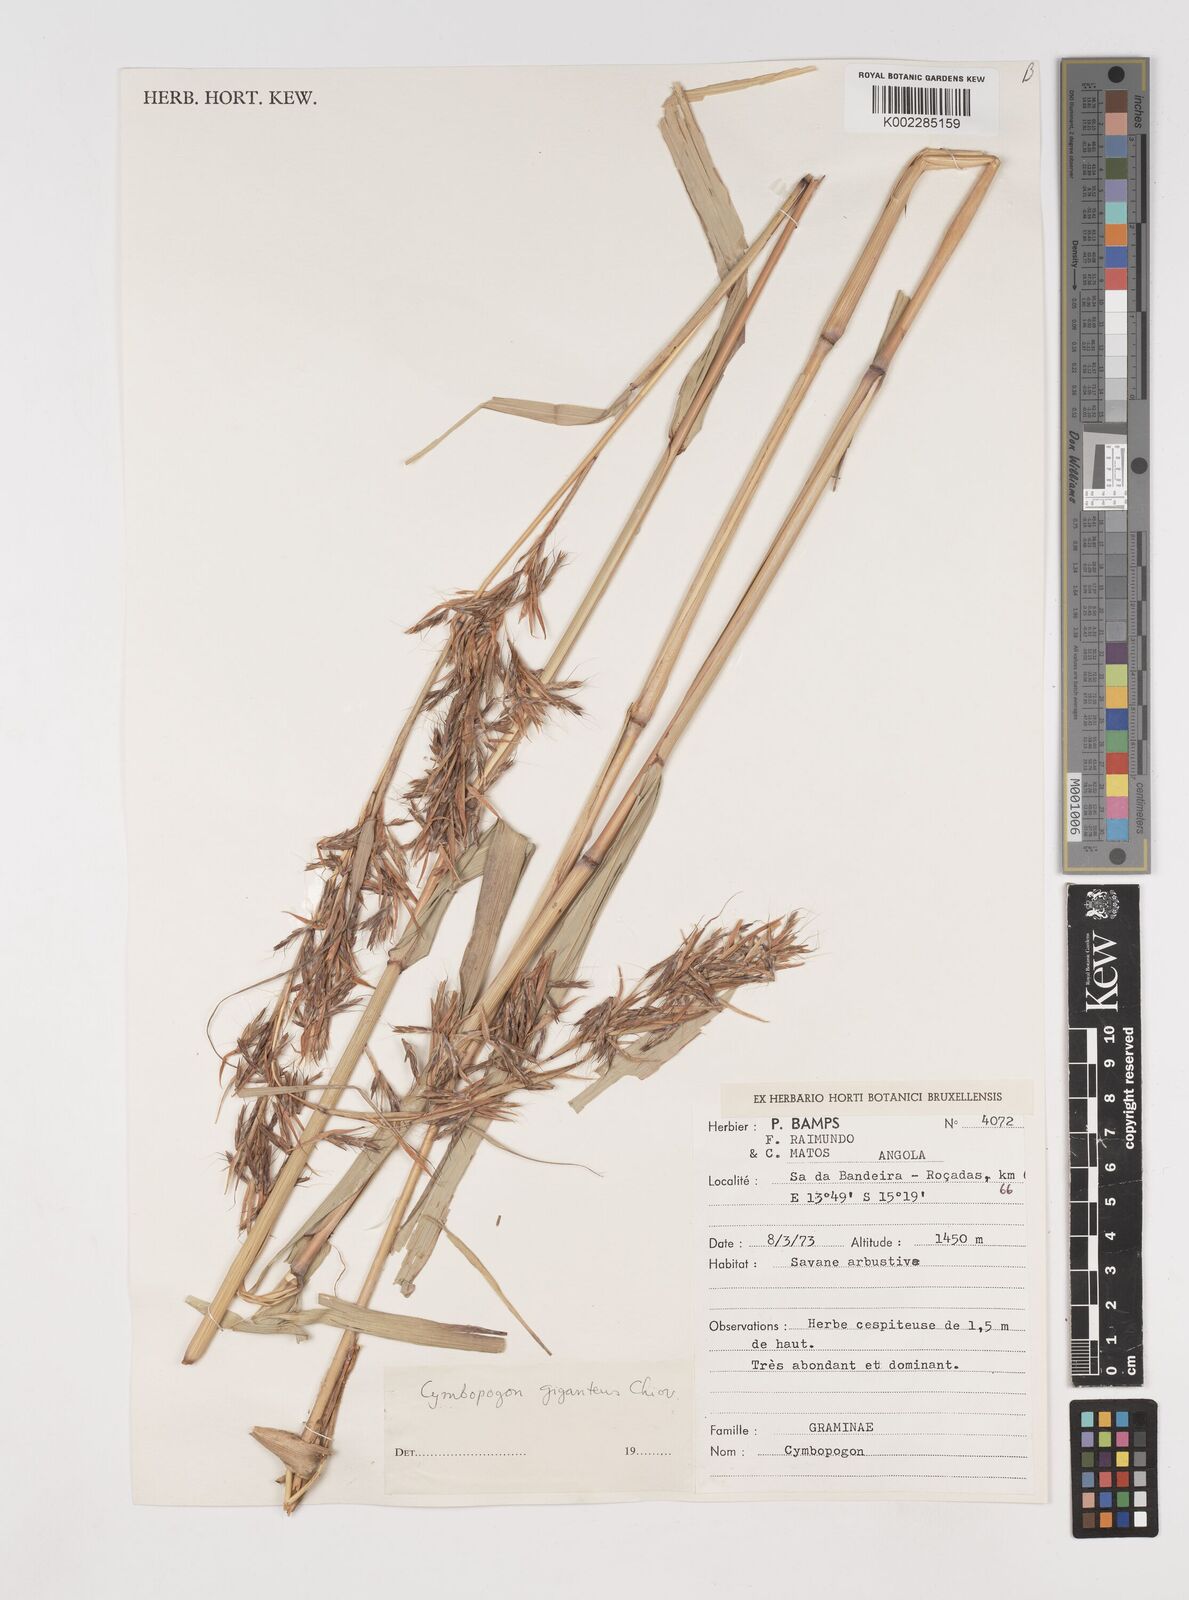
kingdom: Plantae
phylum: Tracheophyta
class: Liliopsida
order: Poales
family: Poaceae
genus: Cymbopogon
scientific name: Cymbopogon giganteus
